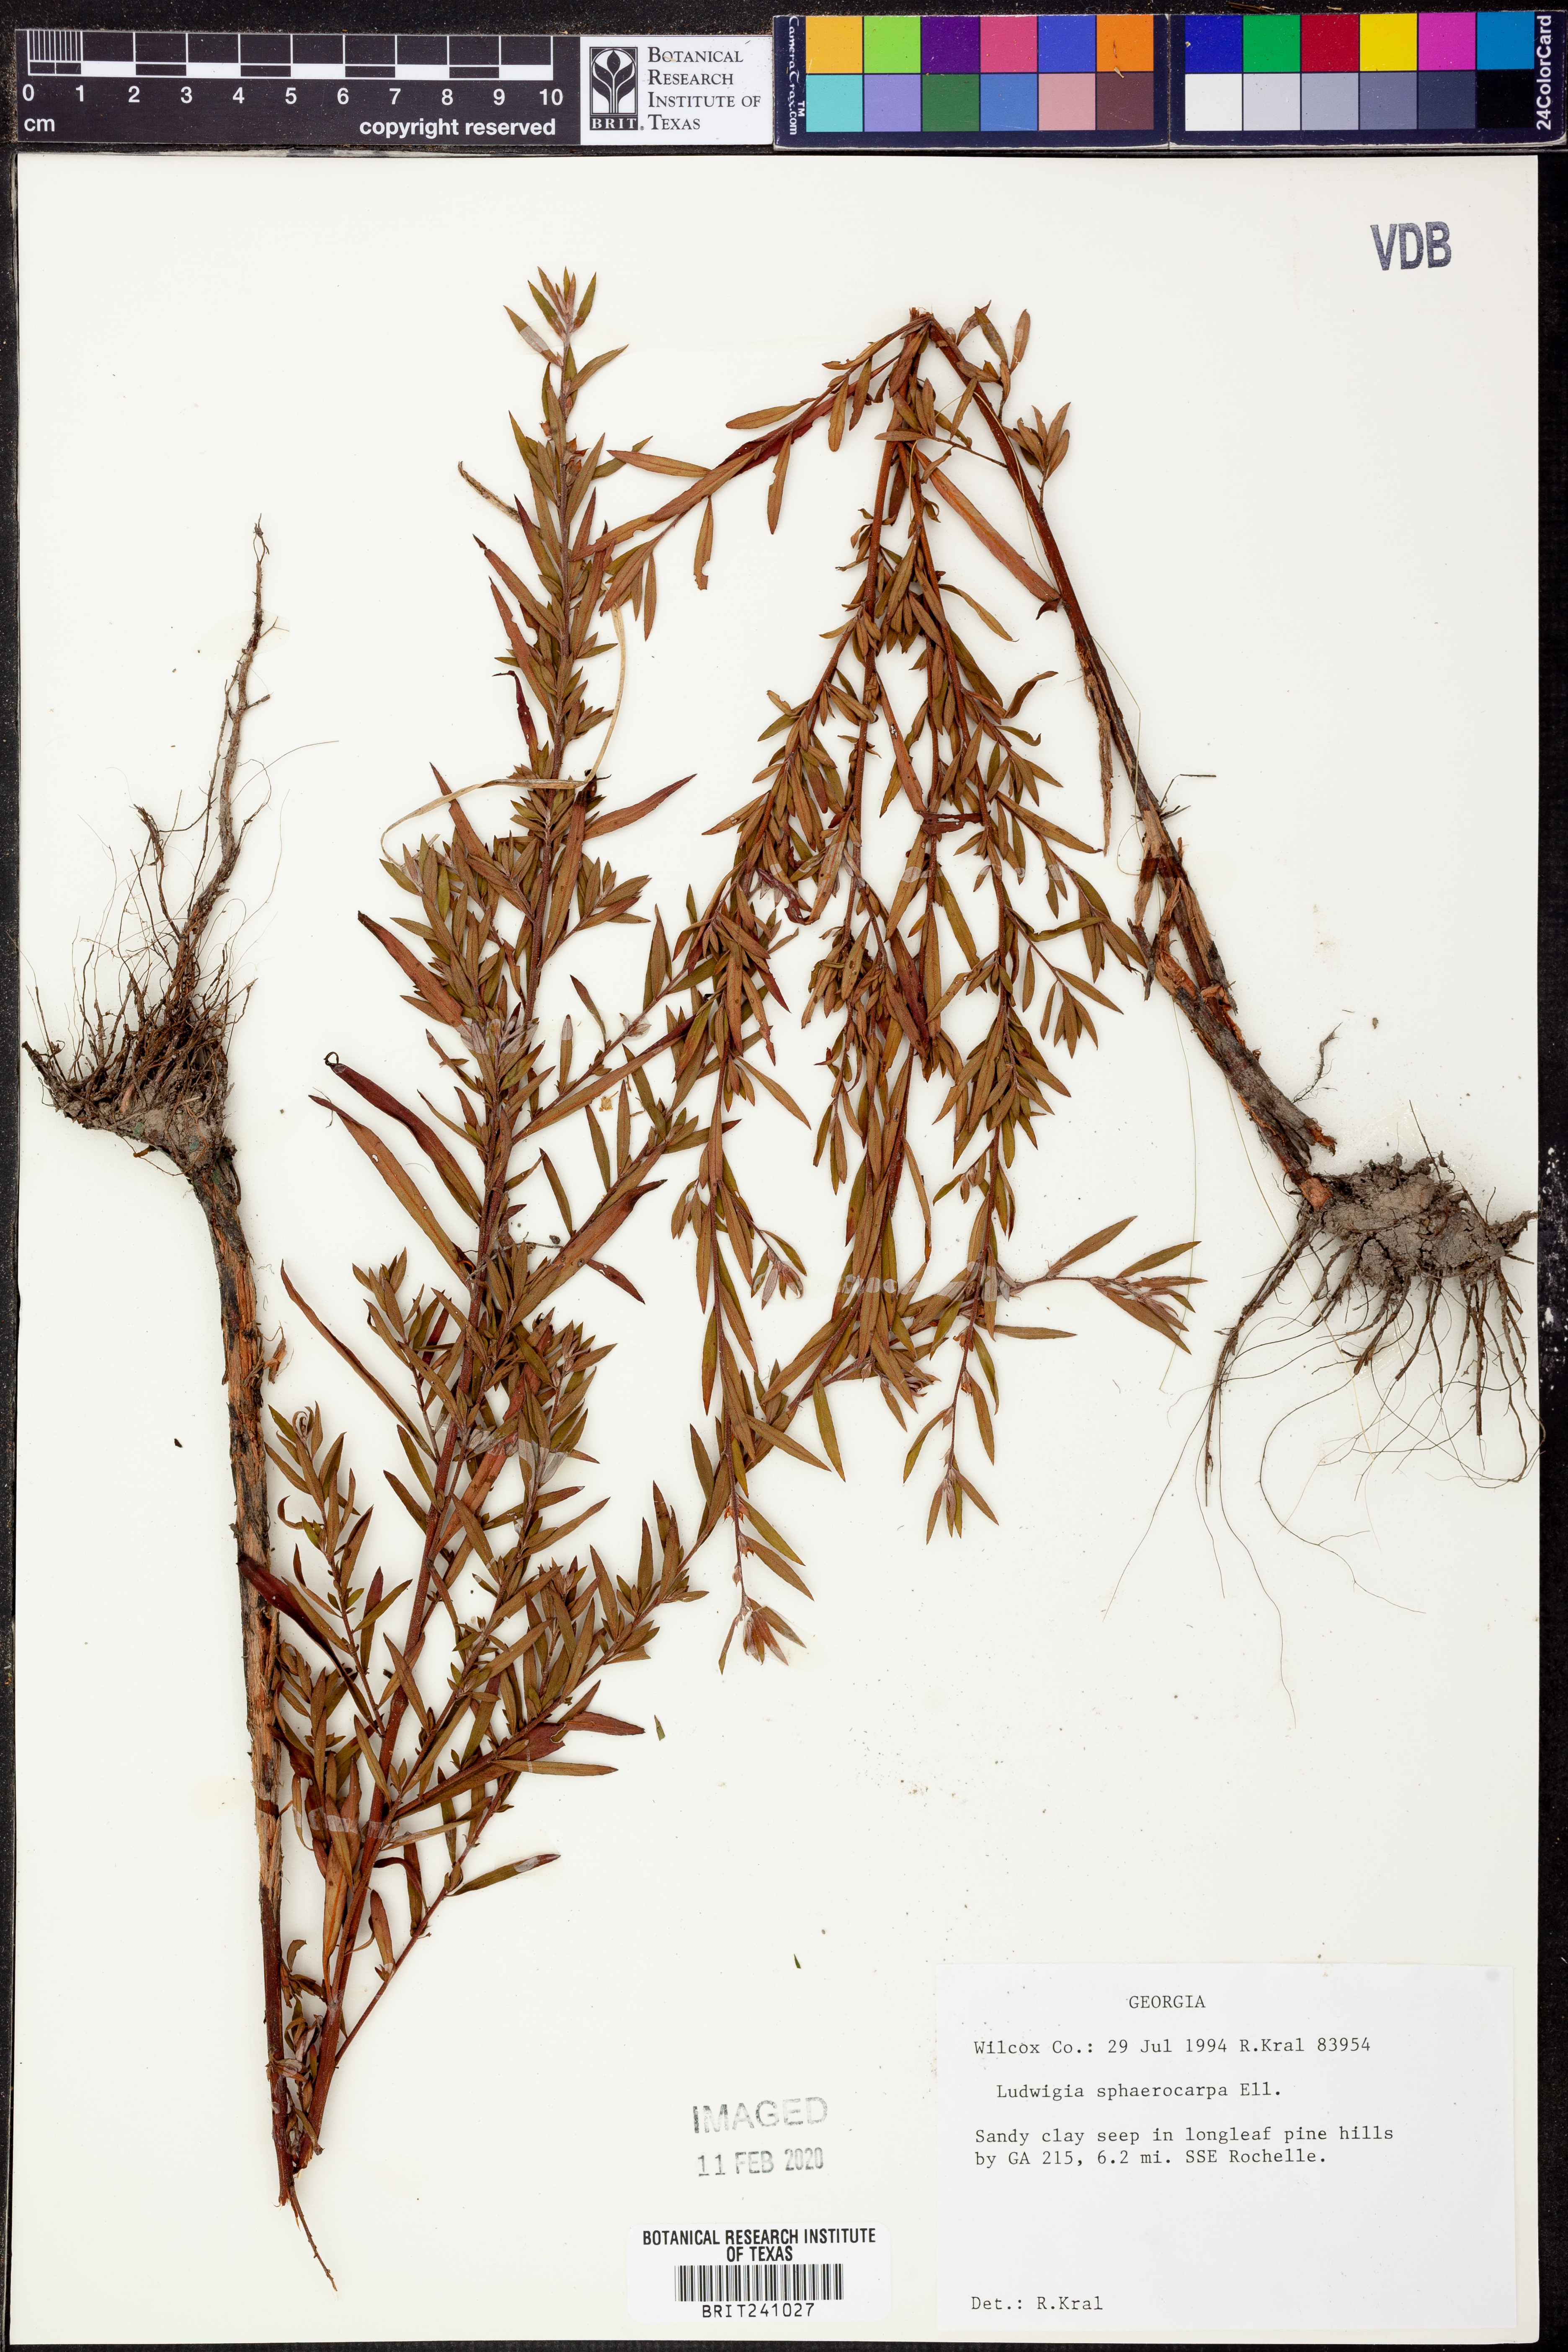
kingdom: Plantae
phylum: Tracheophyta
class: Magnoliopsida
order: Myrtales
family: Onagraceae
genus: Ludwigia
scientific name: Ludwigia sphaerocarpa
